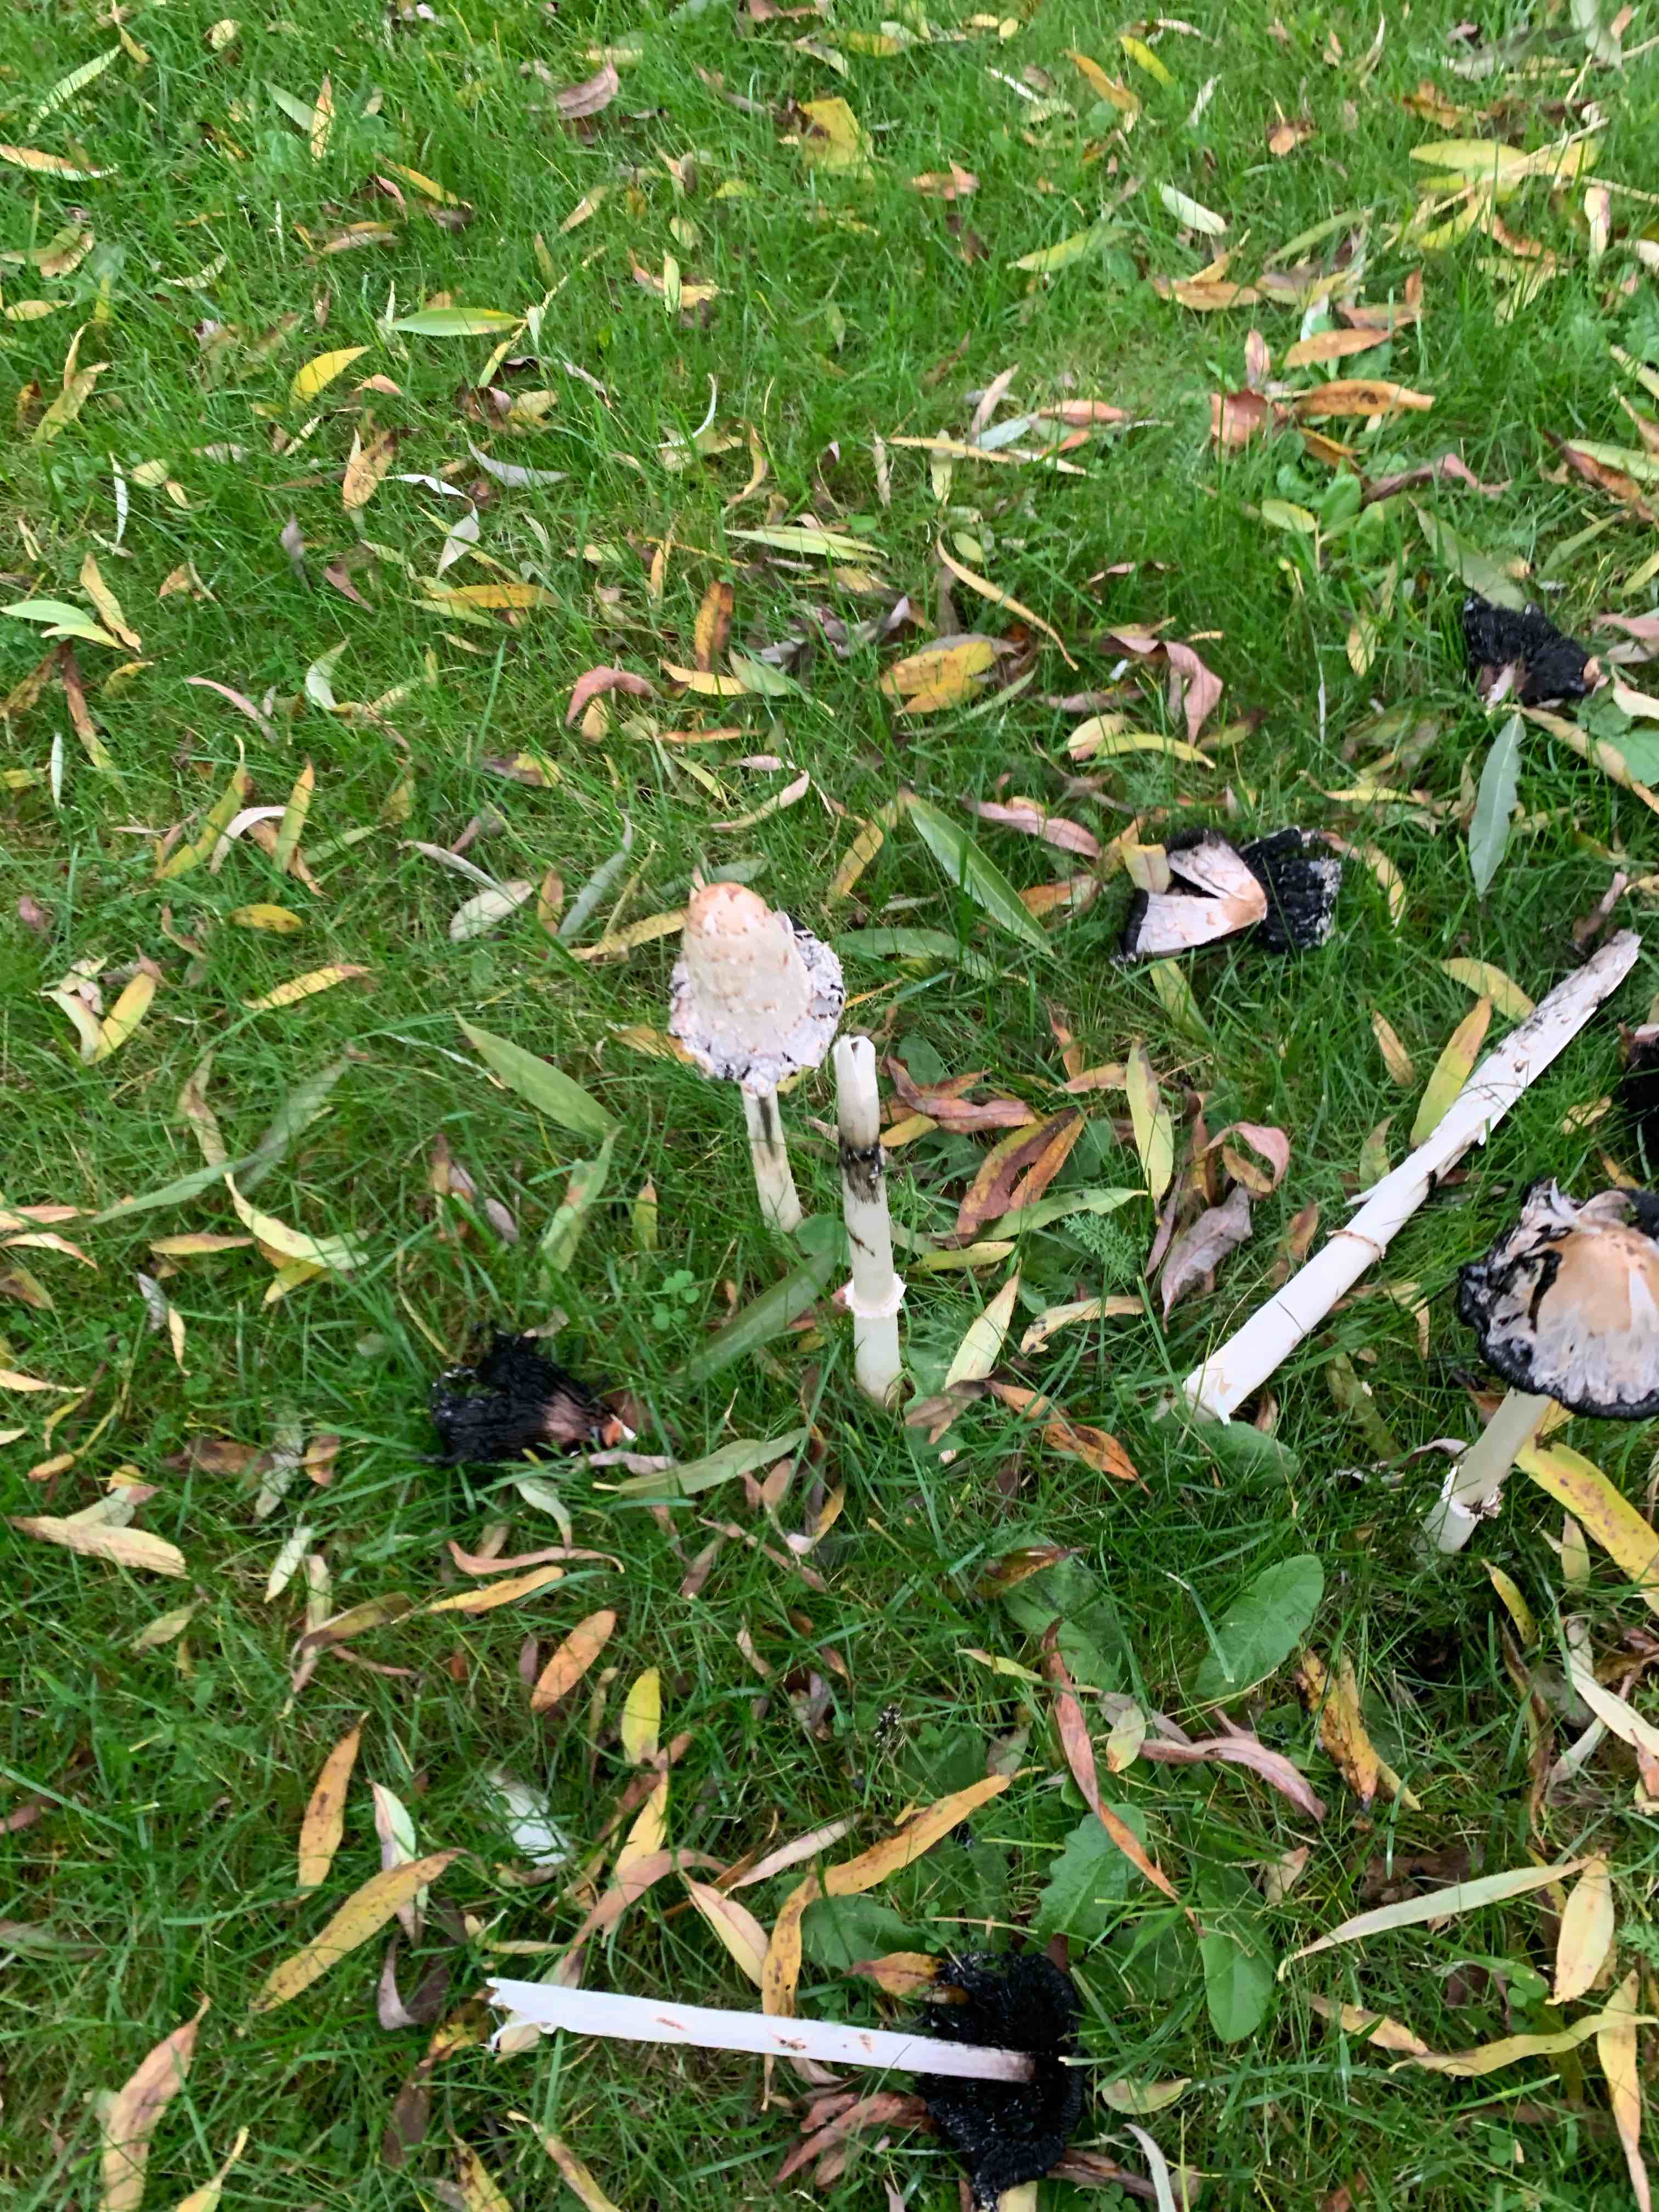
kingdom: Fungi
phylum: Basidiomycota
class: Agaricomycetes
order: Agaricales
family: Agaricaceae
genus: Coprinus
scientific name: Coprinus comatus
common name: stor parykhat
